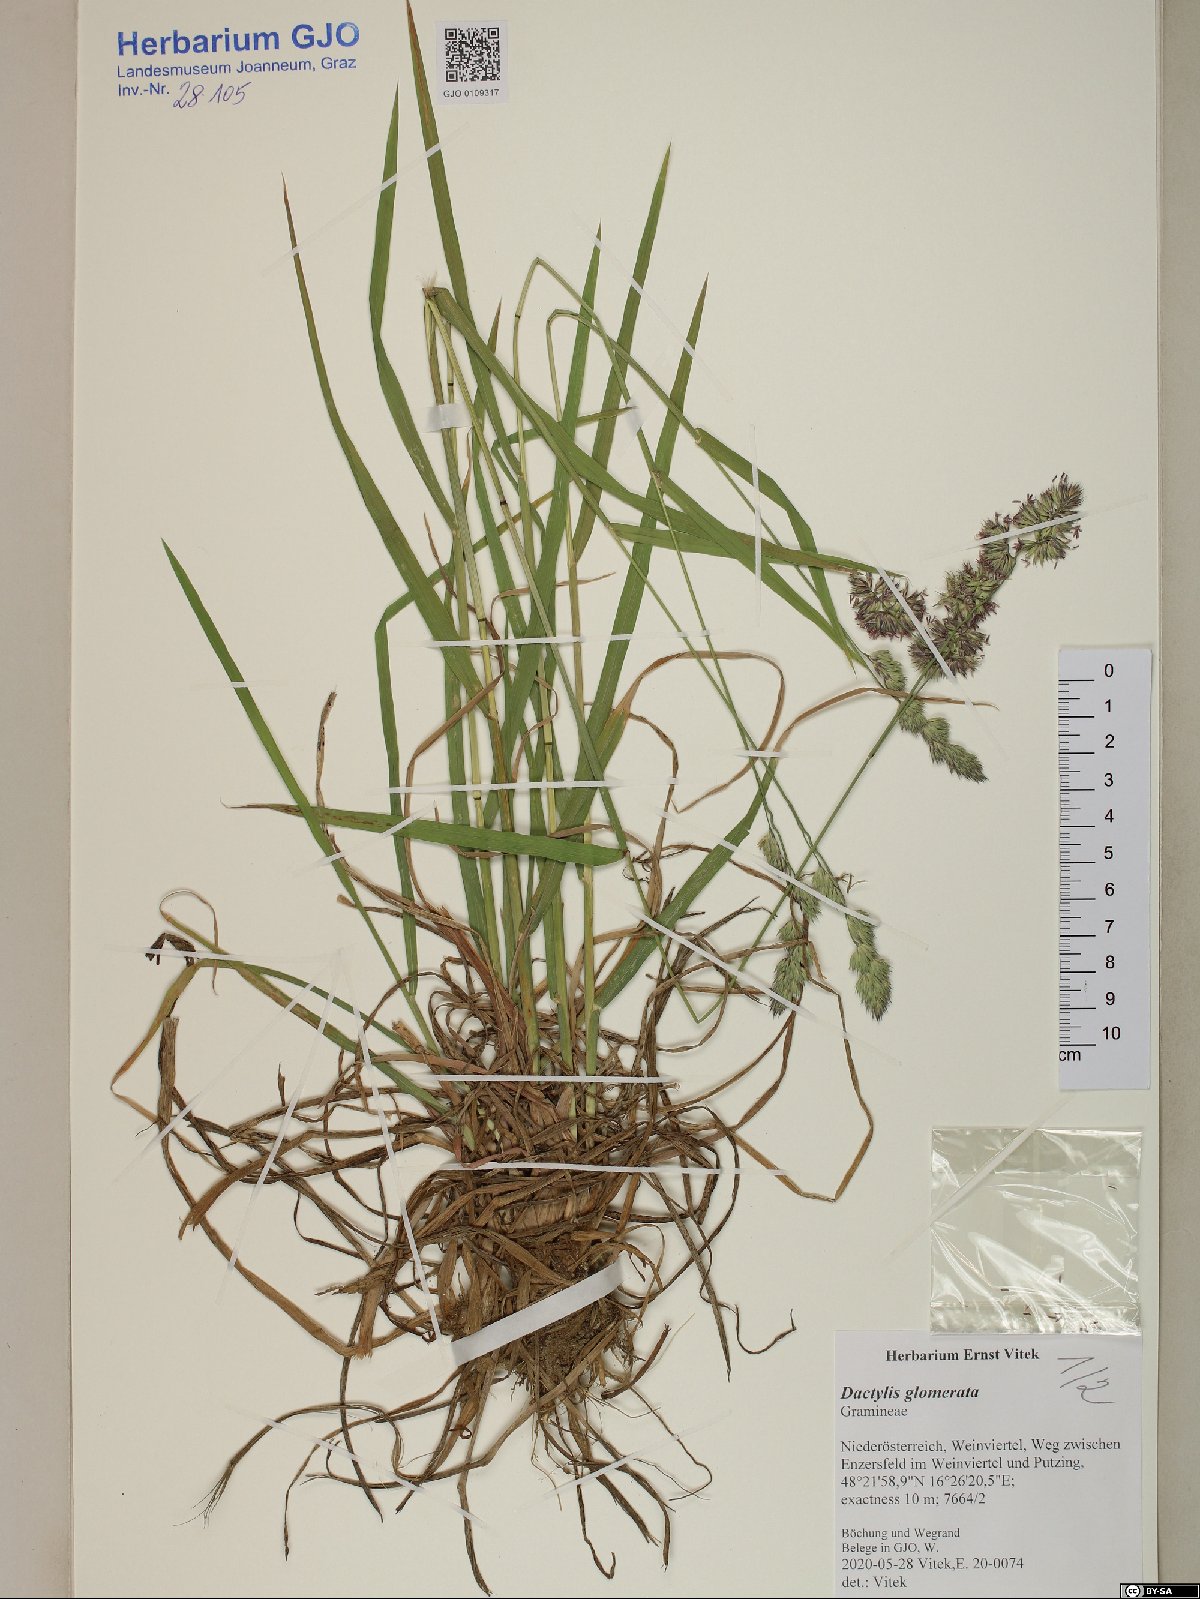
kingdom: Plantae
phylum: Tracheophyta
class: Liliopsida
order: Poales
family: Poaceae
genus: Dactylis
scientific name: Dactylis glomerata
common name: Orchardgrass
